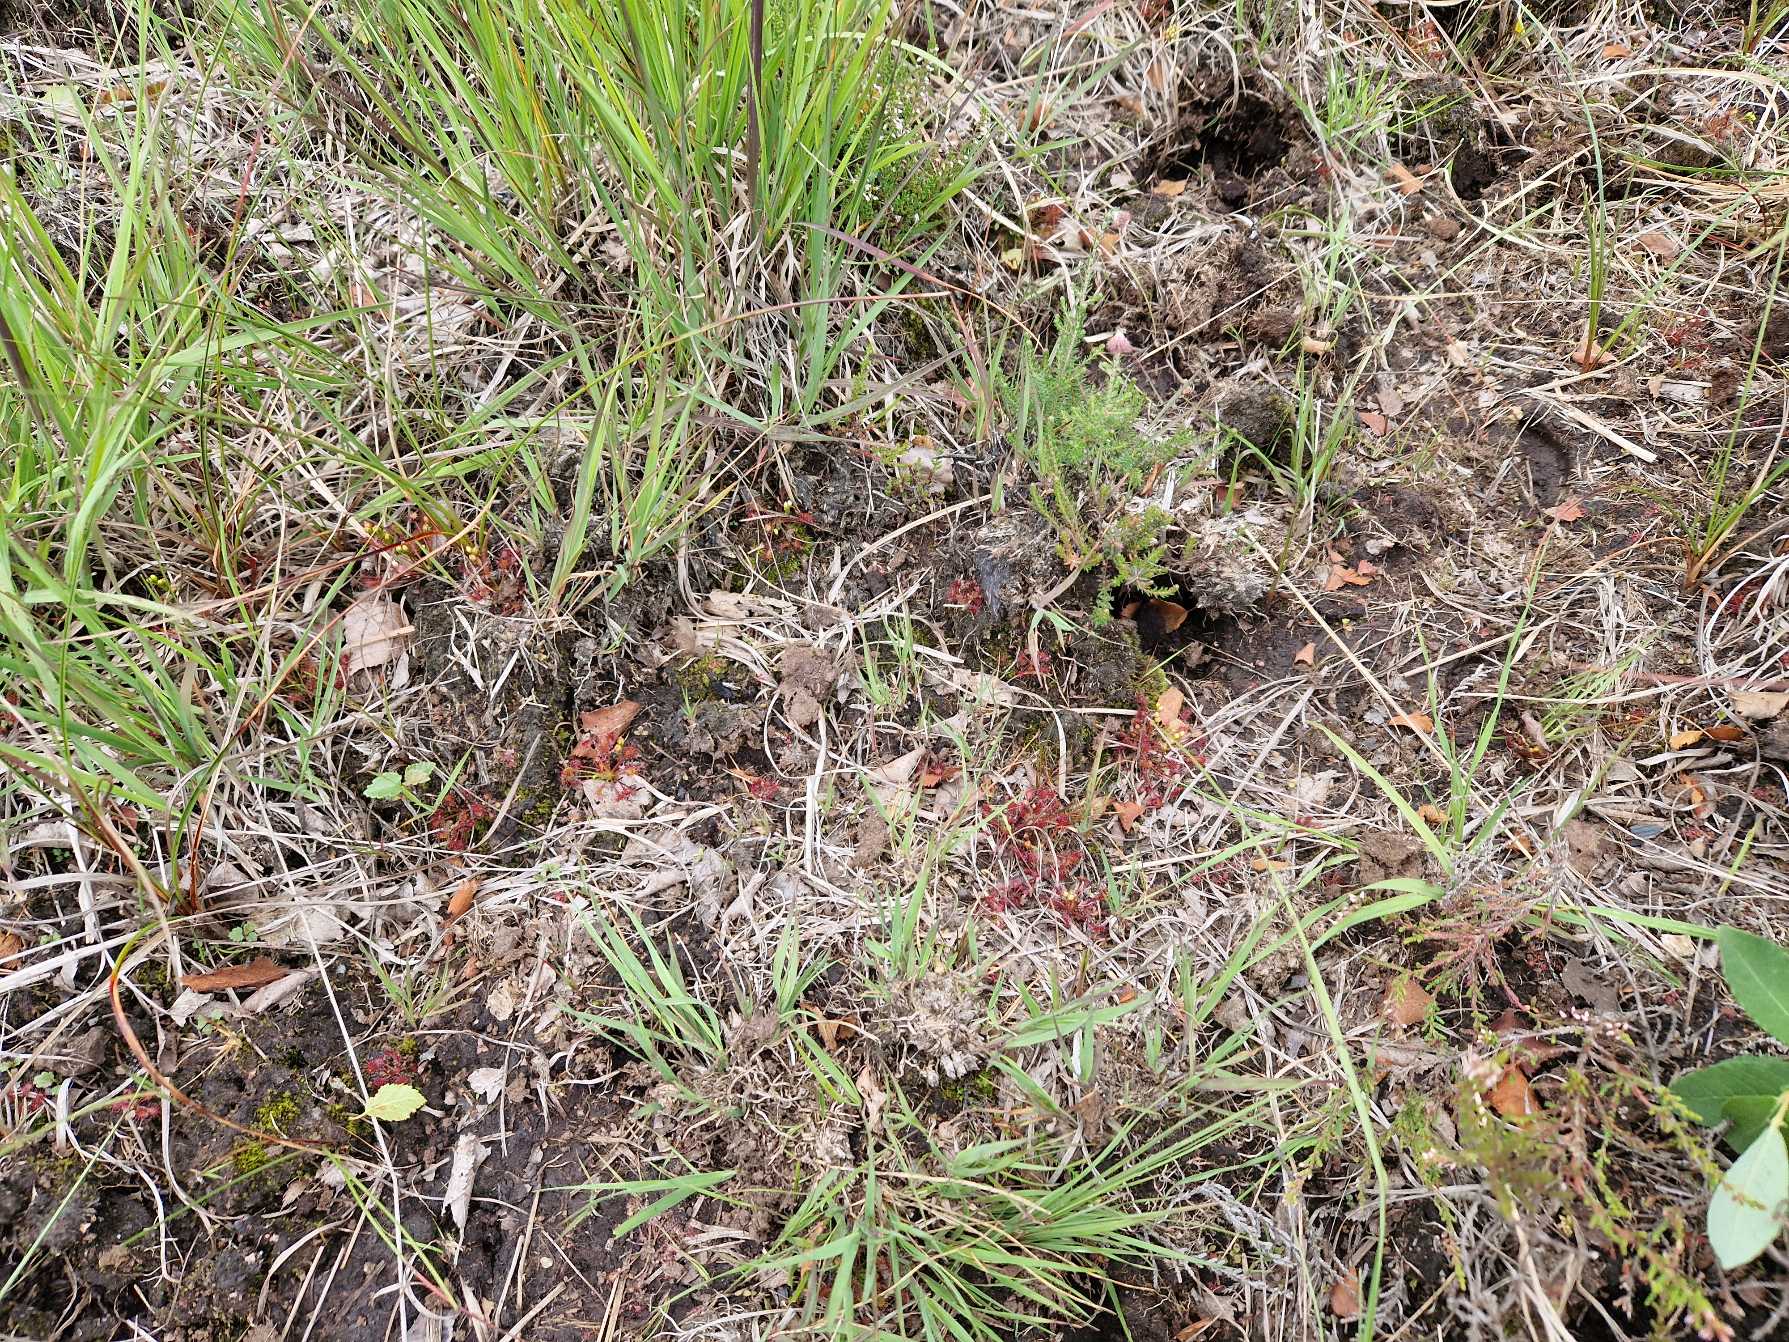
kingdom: Plantae
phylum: Tracheophyta
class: Magnoliopsida
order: Caryophyllales
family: Droseraceae
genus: Drosera
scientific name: Drosera intermedia
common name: Liden soldug
